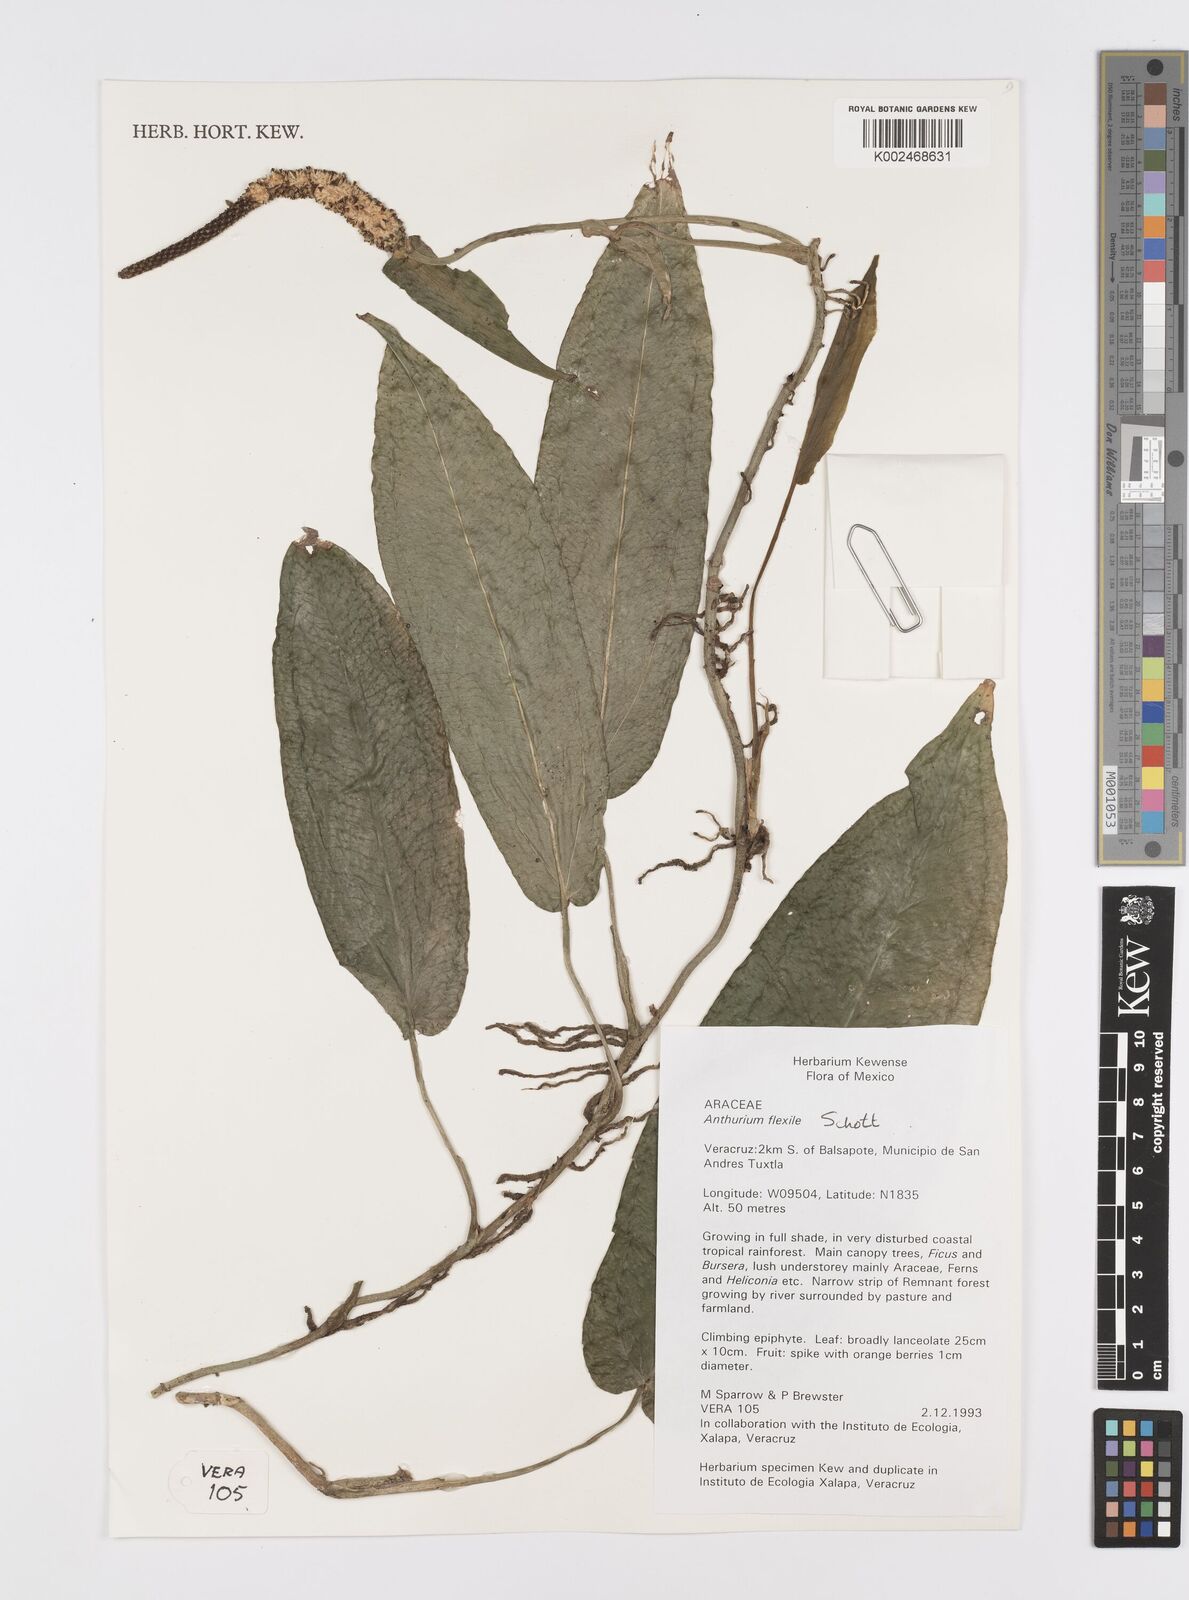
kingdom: Plantae
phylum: Tracheophyta
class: Liliopsida
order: Alismatales
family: Araceae
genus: Anthurium
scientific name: Anthurium flexile
